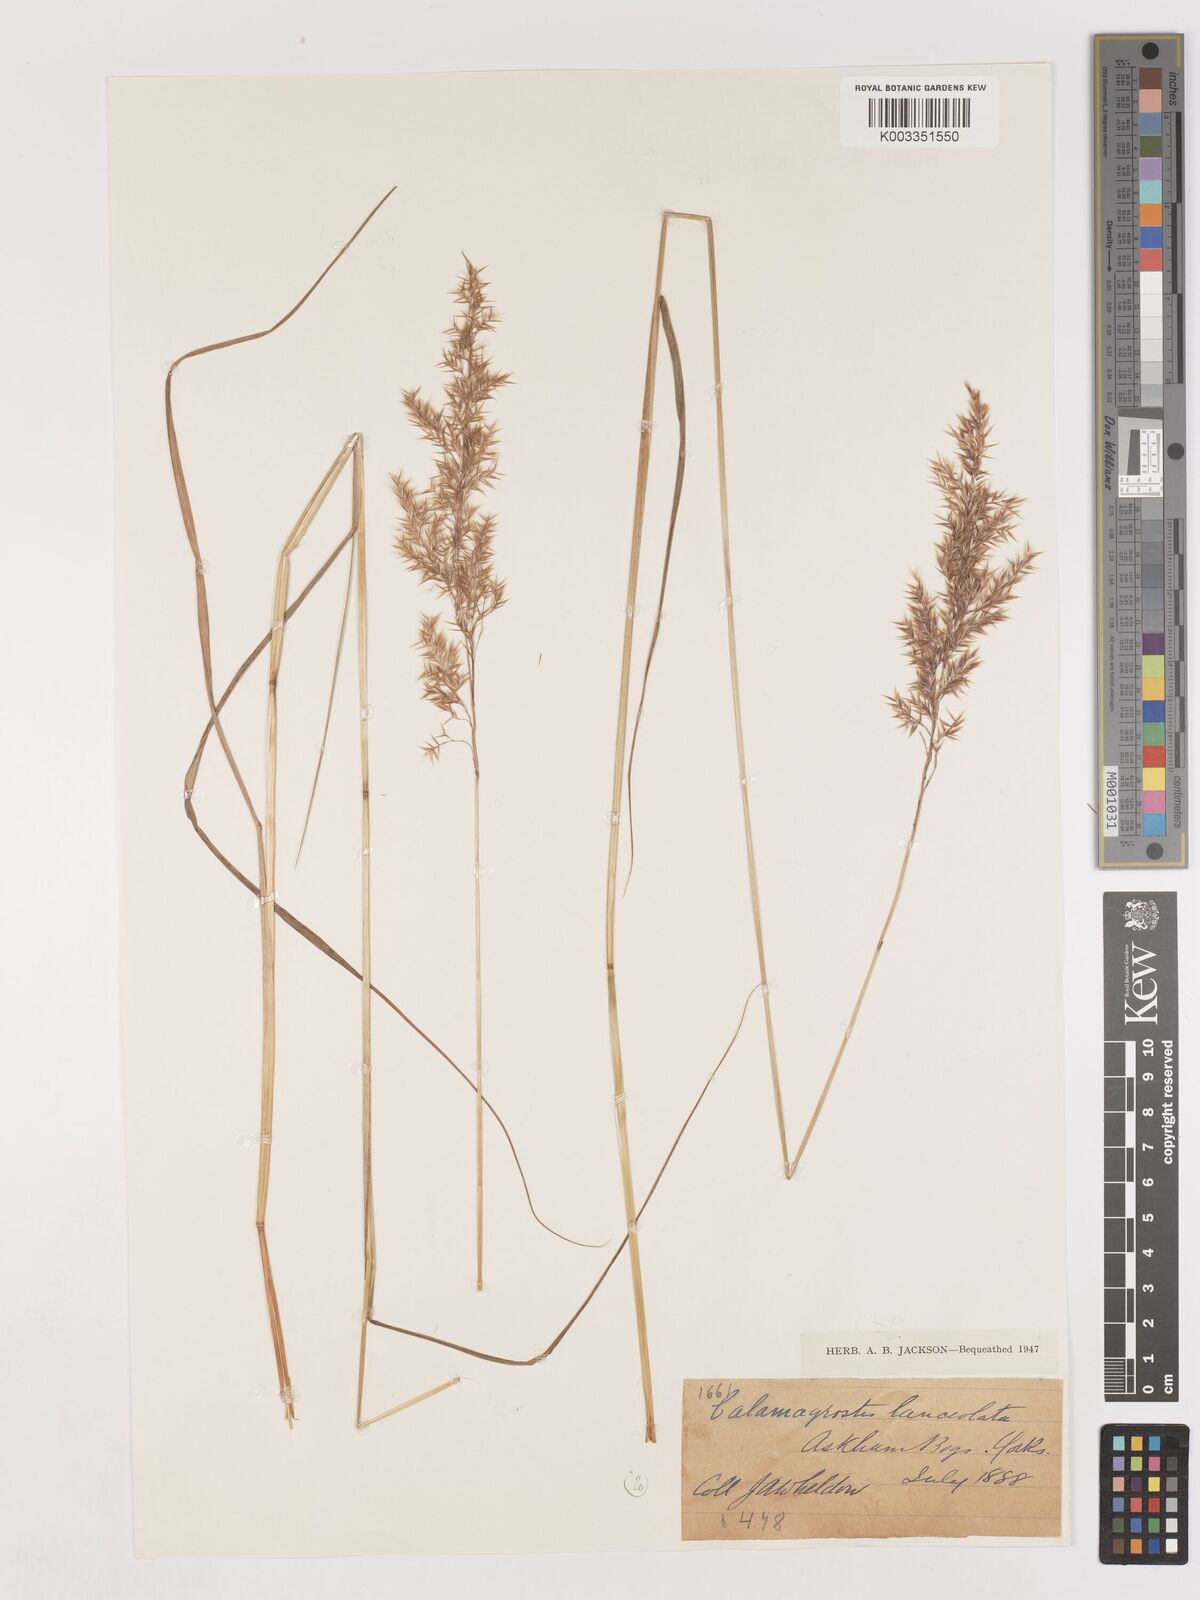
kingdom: Plantae
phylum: Tracheophyta
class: Liliopsida
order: Poales
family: Poaceae
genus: Calamagrostis
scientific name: Calamagrostis canescens
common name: Purple small-reed
